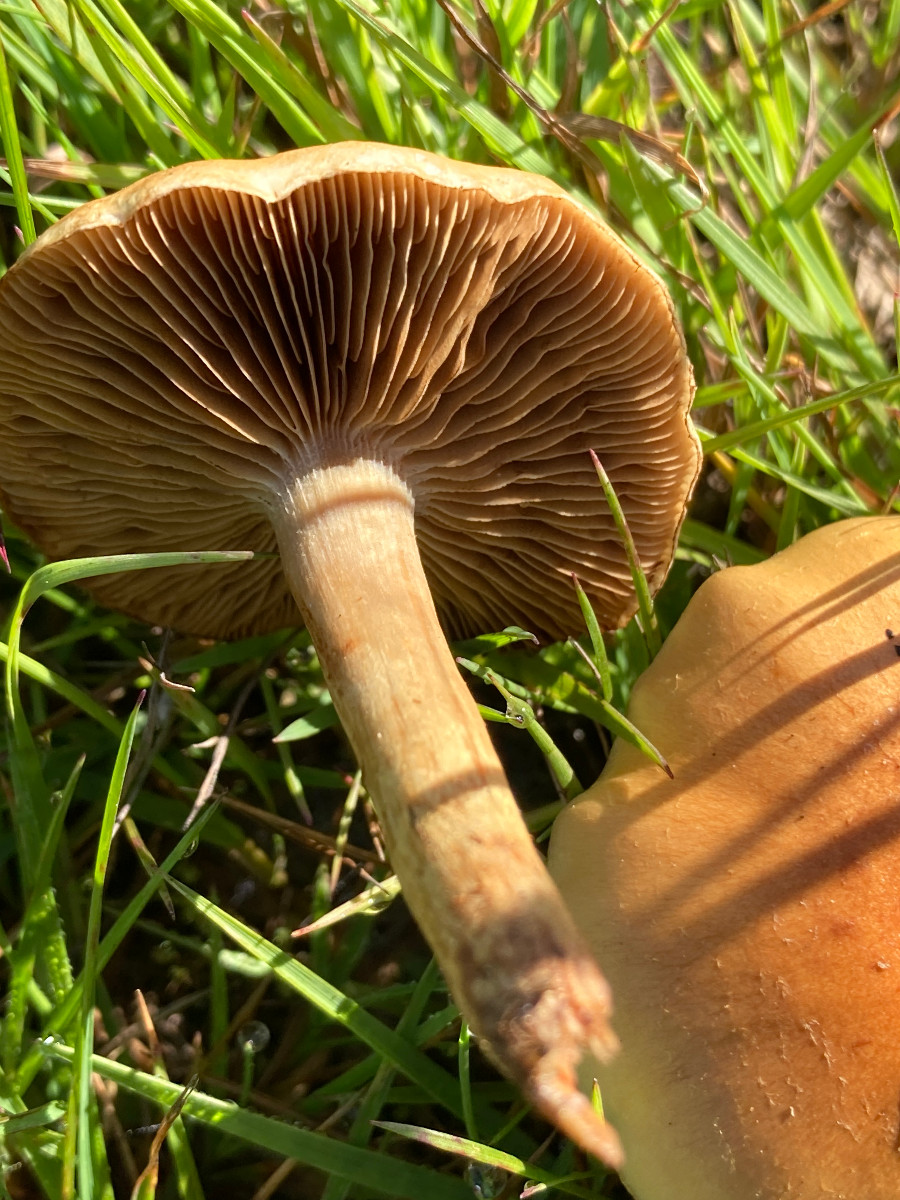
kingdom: Fungi
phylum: Basidiomycota
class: Agaricomycetes
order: Agaricales
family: Cortinariaceae
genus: Cortinarius
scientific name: Cortinarius
